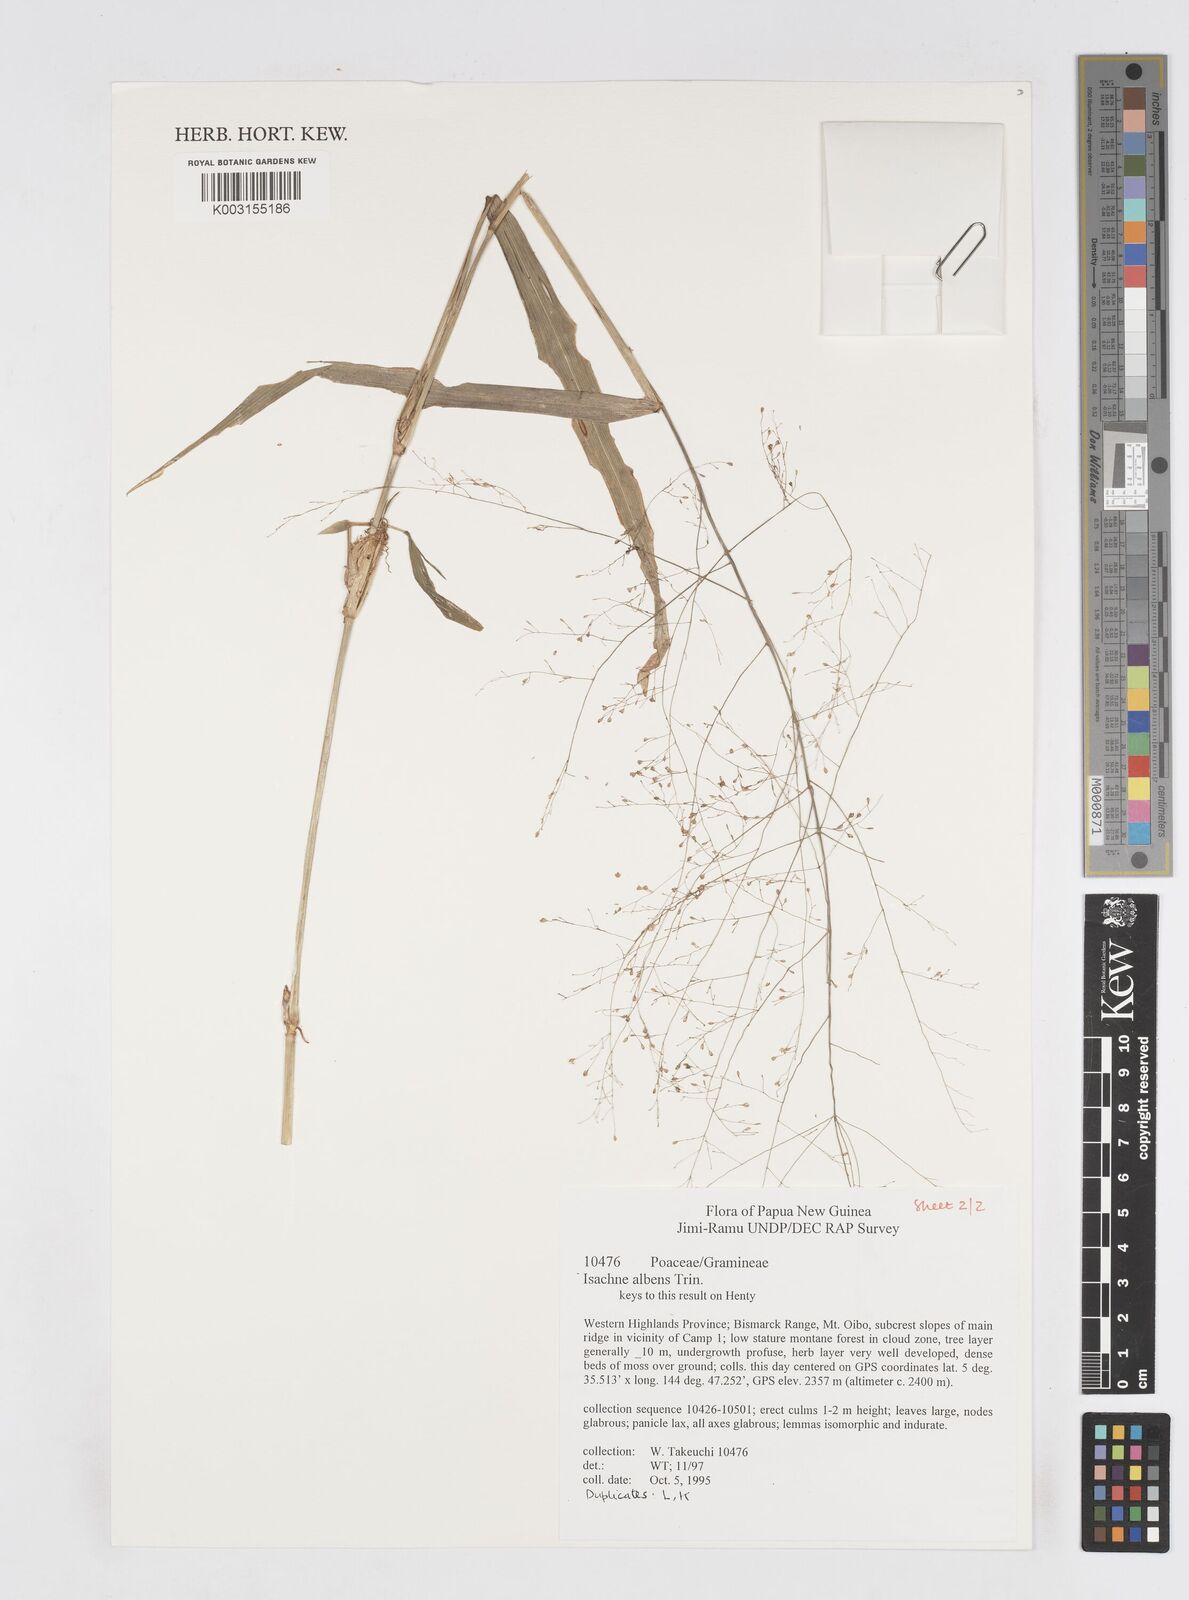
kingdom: Plantae
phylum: Tracheophyta
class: Liliopsida
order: Poales
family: Poaceae
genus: Isachne
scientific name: Isachne albens
